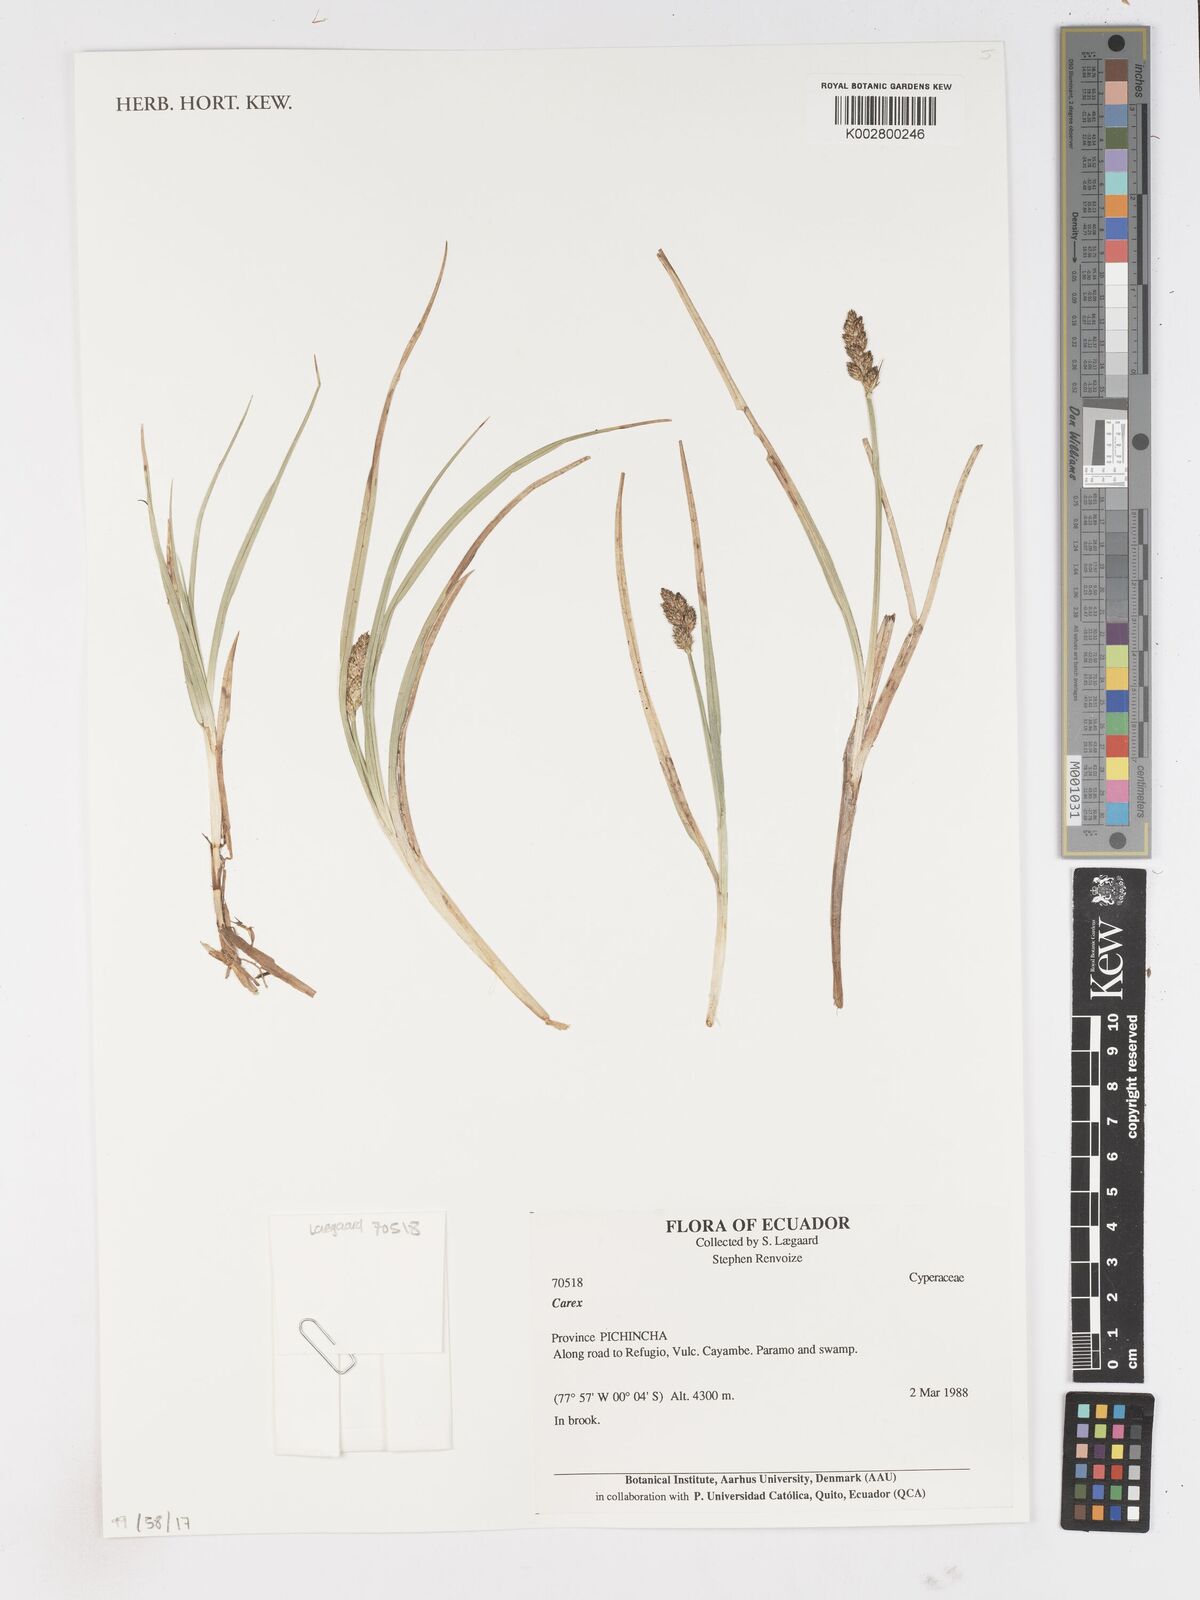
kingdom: Plantae
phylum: Tracheophyta
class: Liliopsida
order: Poales
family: Cyperaceae
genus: Carex
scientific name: Carex
